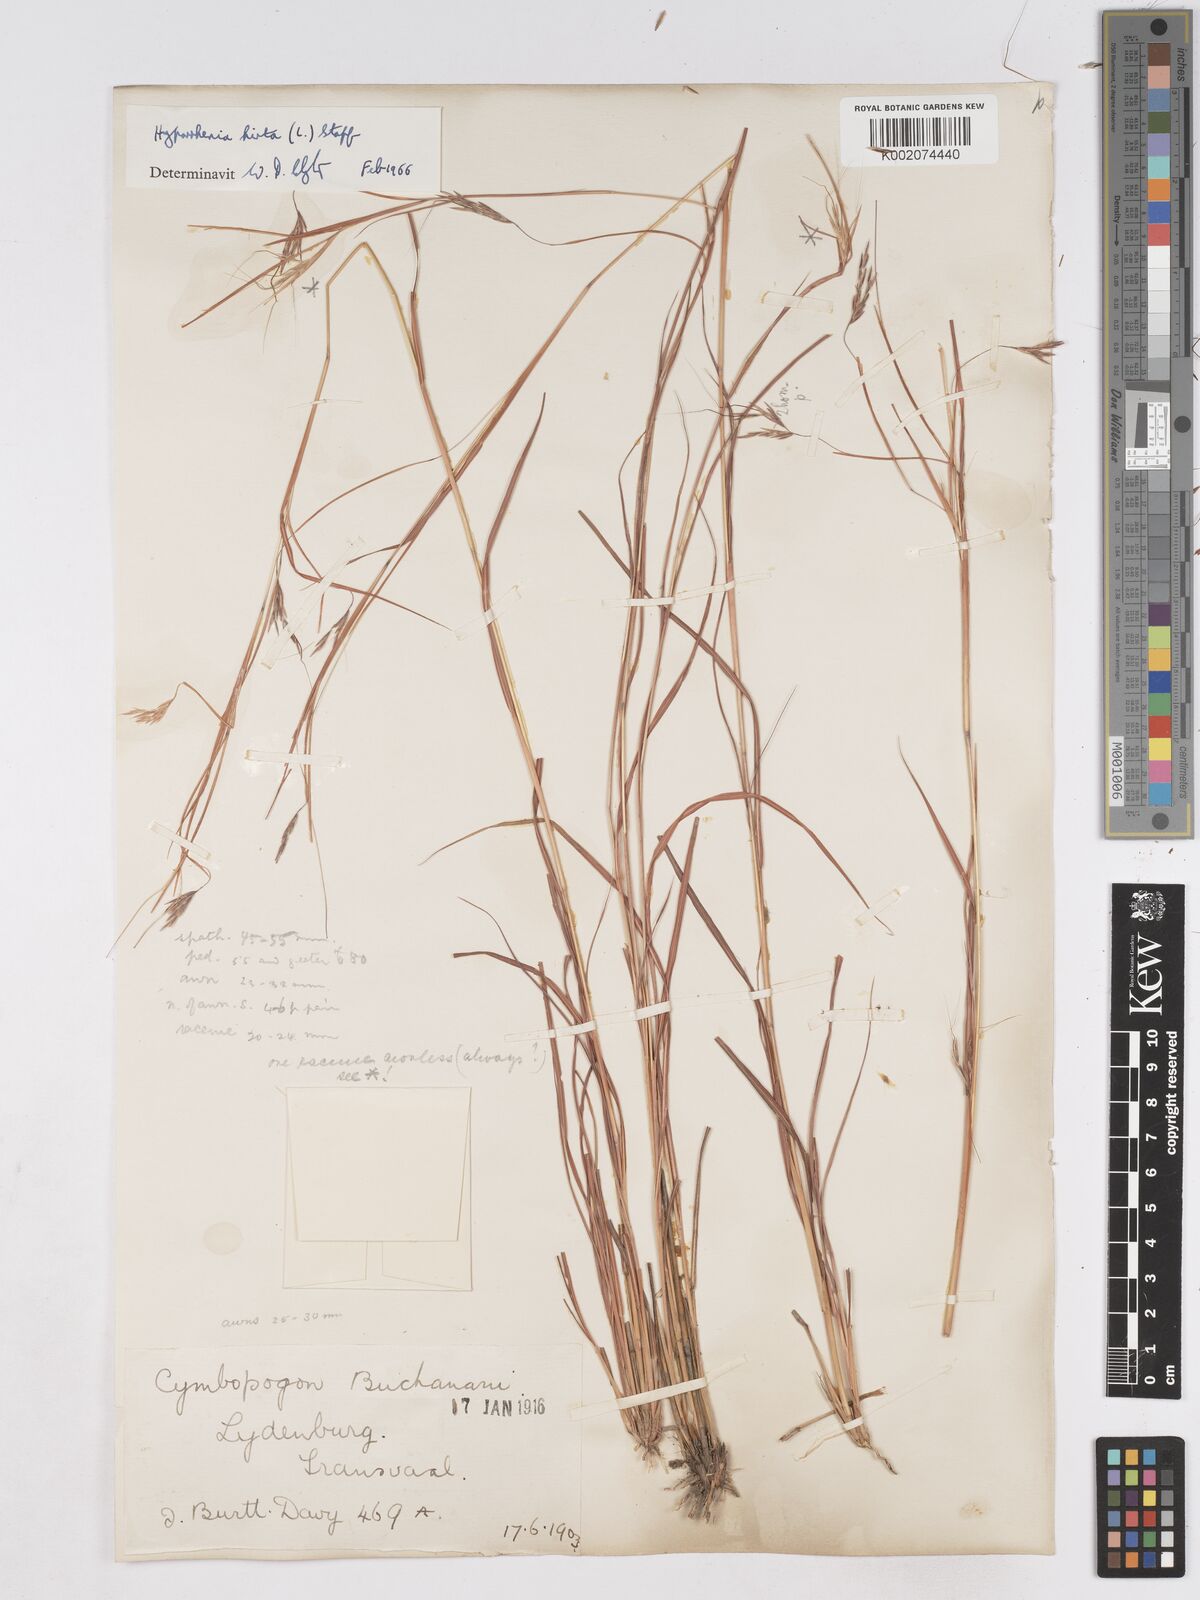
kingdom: Plantae
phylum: Tracheophyta
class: Liliopsida
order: Poales
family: Poaceae
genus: Hyparrhenia
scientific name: Hyparrhenia hirta
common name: Thatching grass
